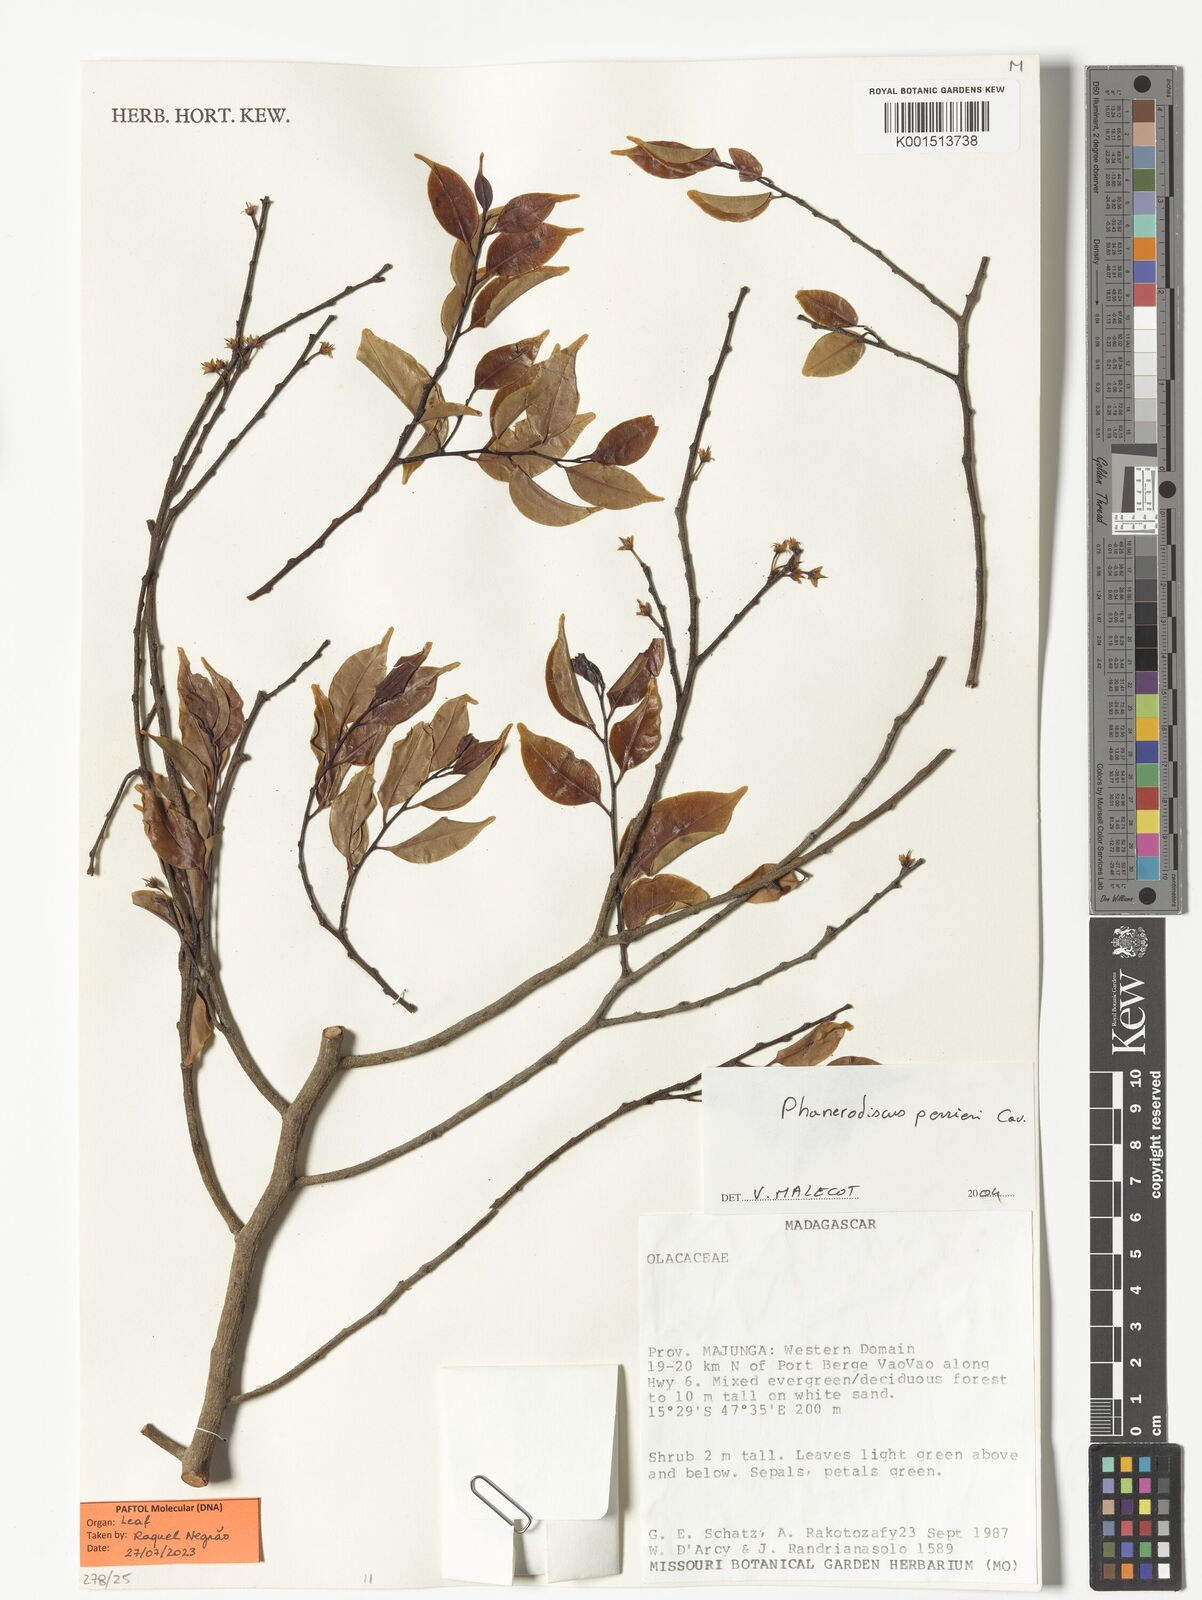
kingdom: Plantae
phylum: Tracheophyta
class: Magnoliopsida
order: Santalales
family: Aptandraceae
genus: Phanerodiscus
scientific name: Phanerodiscus perrieri
